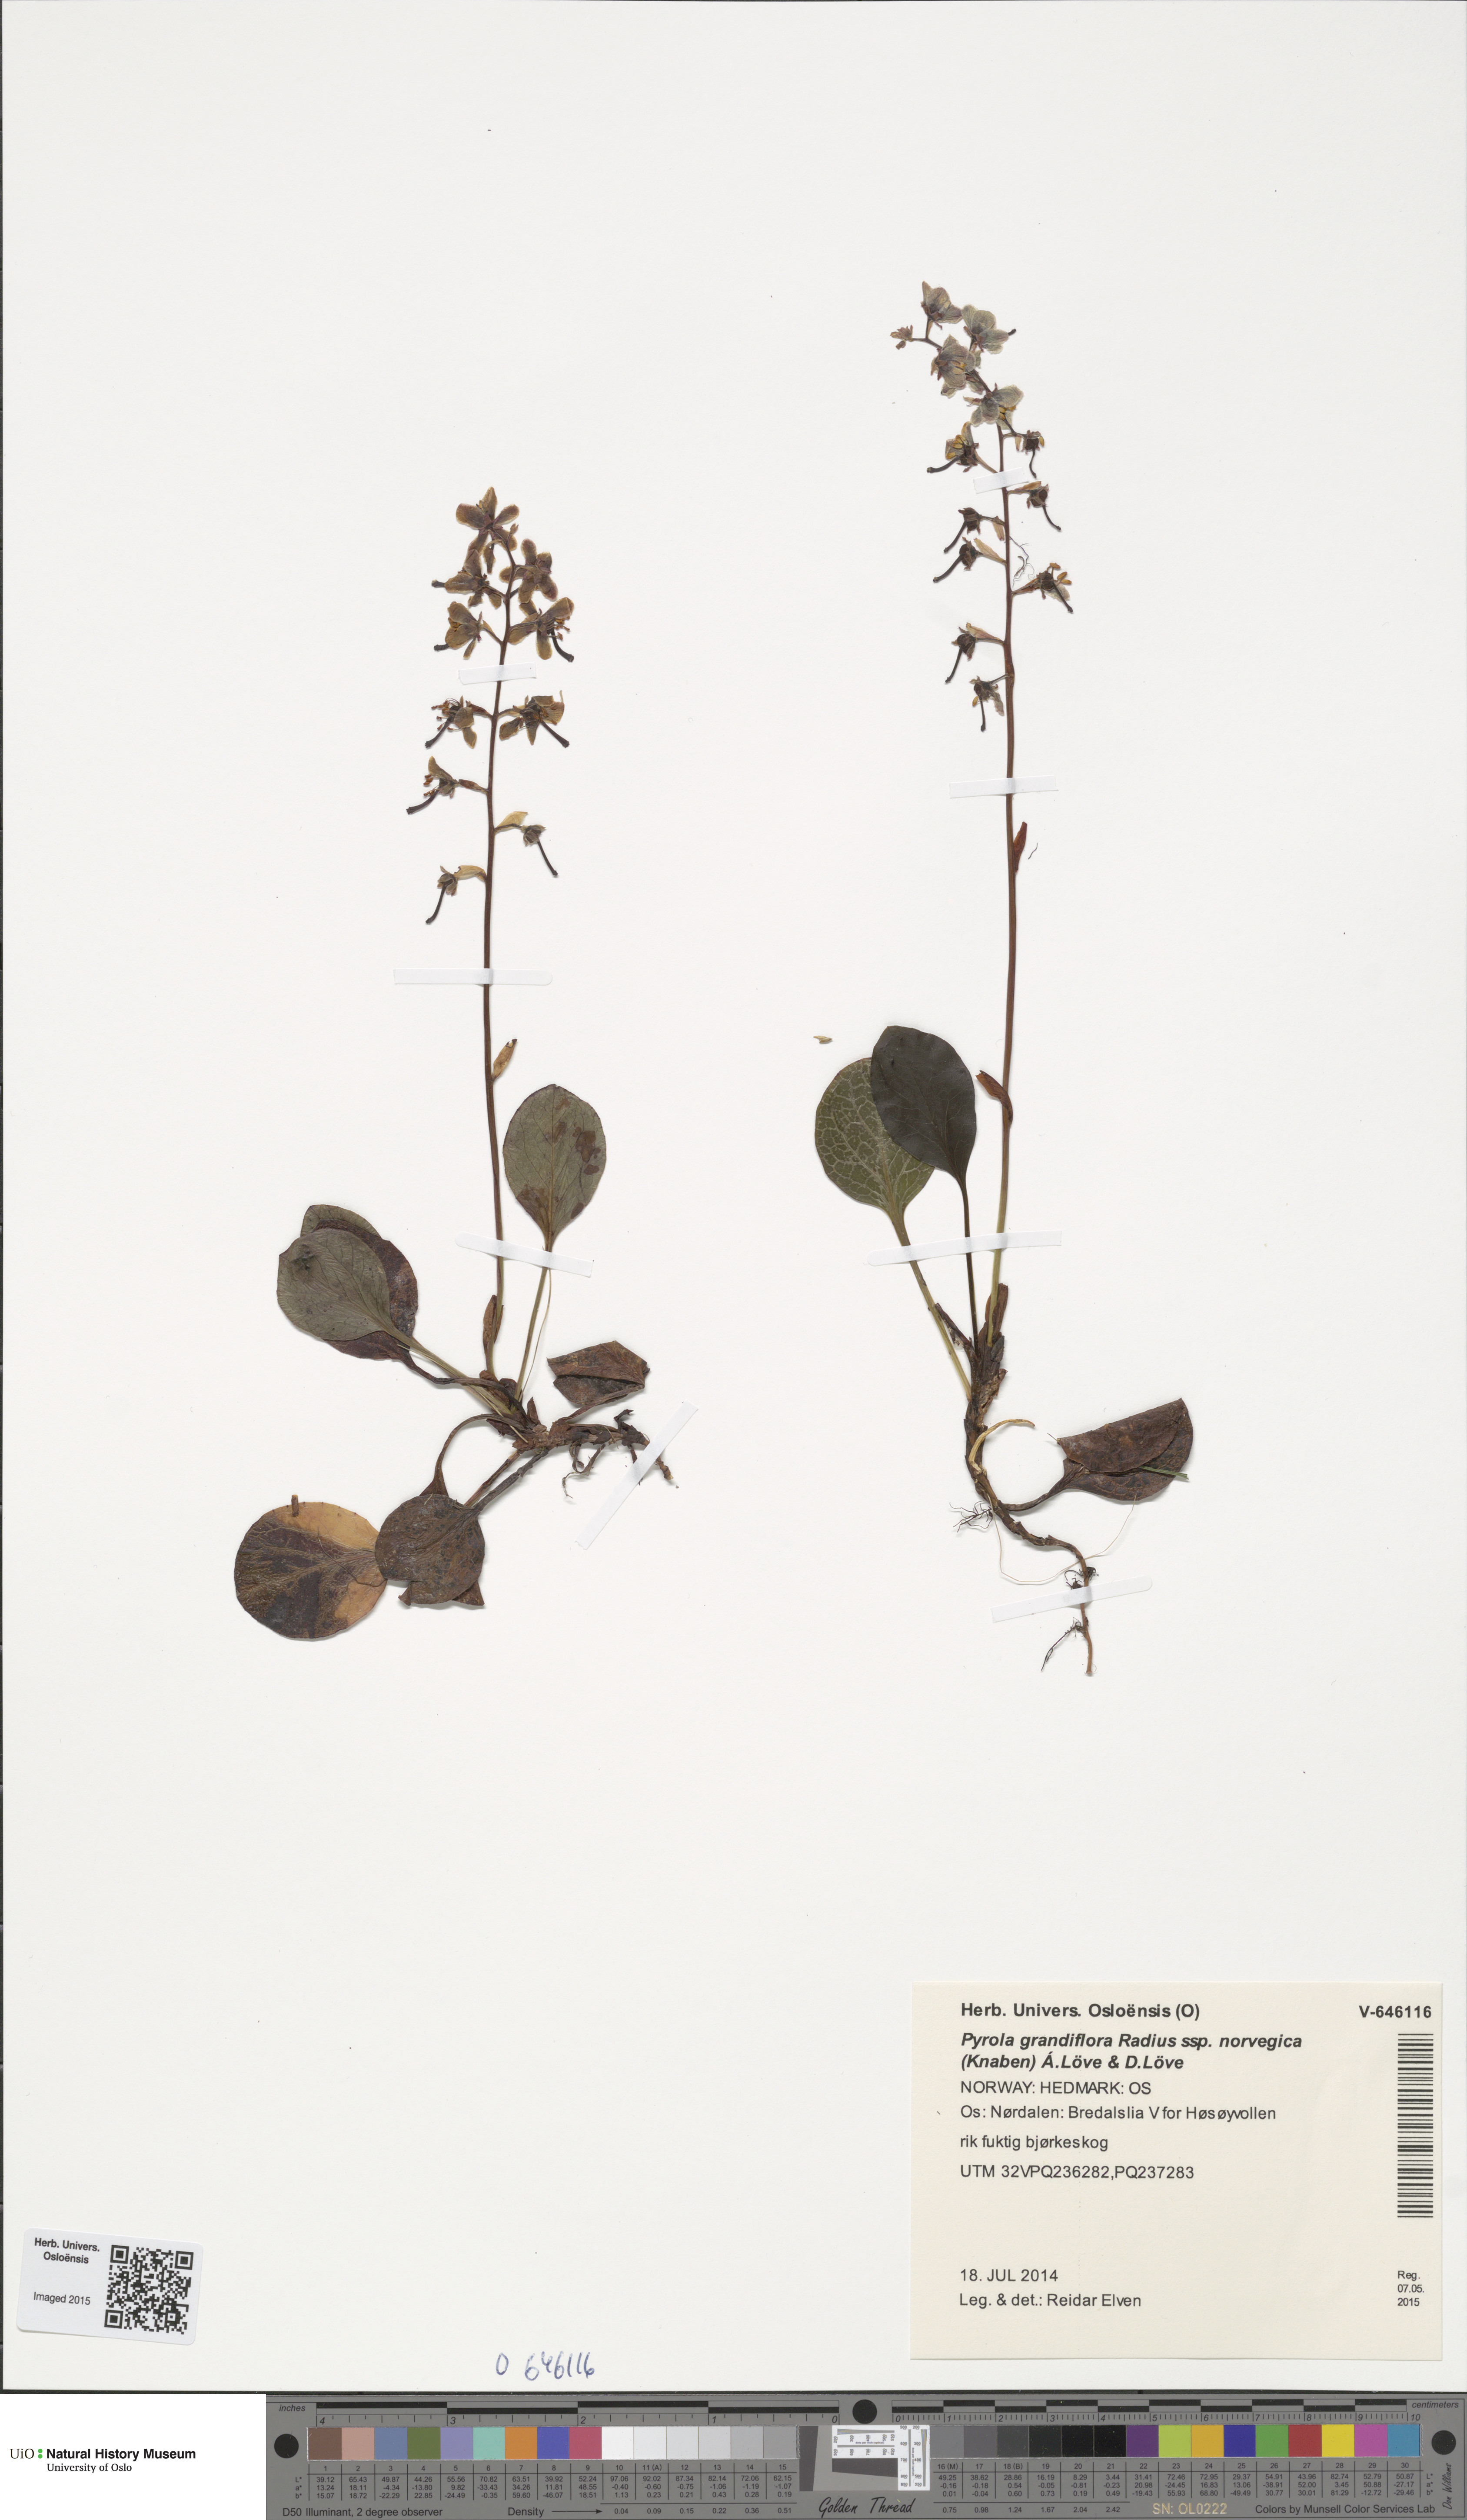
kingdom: Plantae
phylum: Tracheophyta
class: Magnoliopsida
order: Ericales
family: Ericaceae
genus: Pyrola
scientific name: Pyrola rotundifolia
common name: Round-leaved wintergreen
